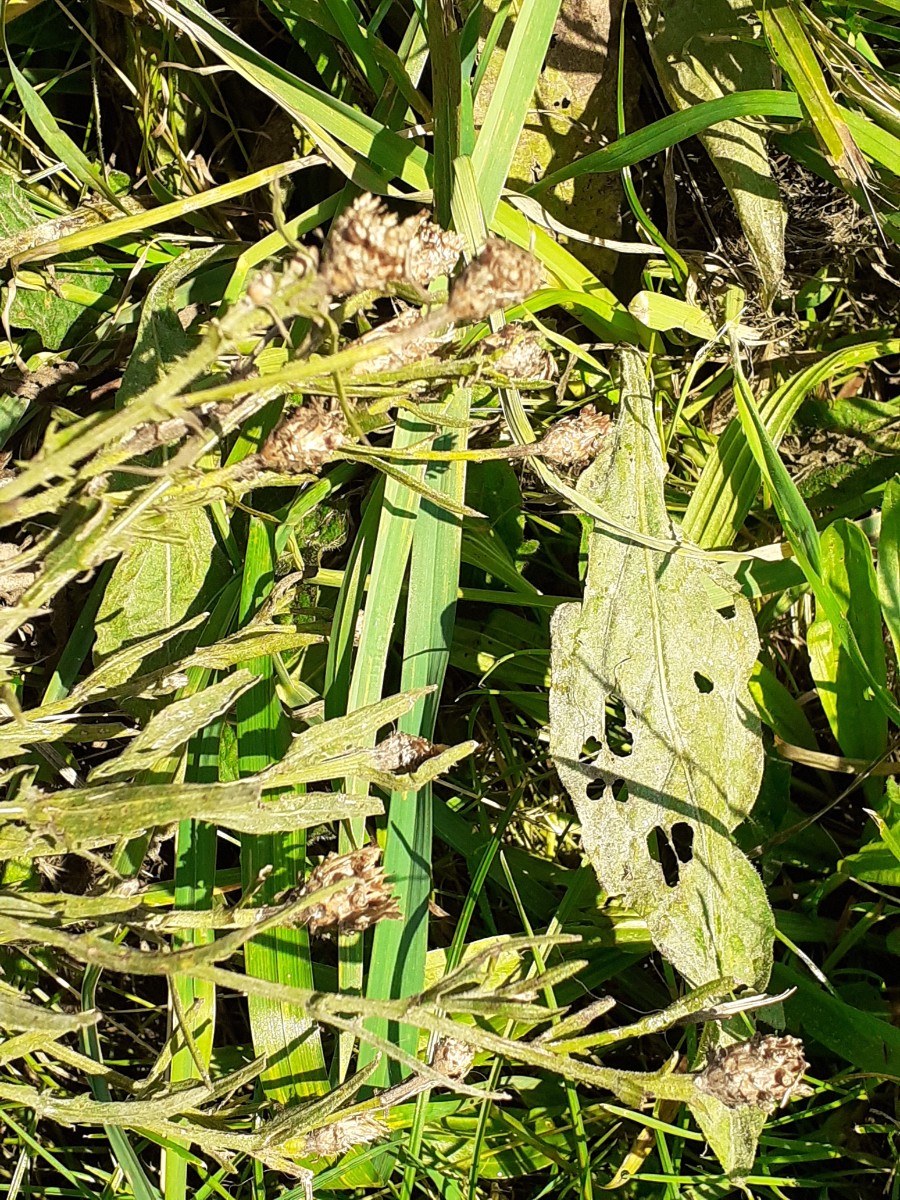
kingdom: Fungi
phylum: Ascomycota
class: Leotiomycetes
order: Helotiales
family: Erysiphaceae
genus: Golovinomyces
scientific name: Golovinomyces montagnei
